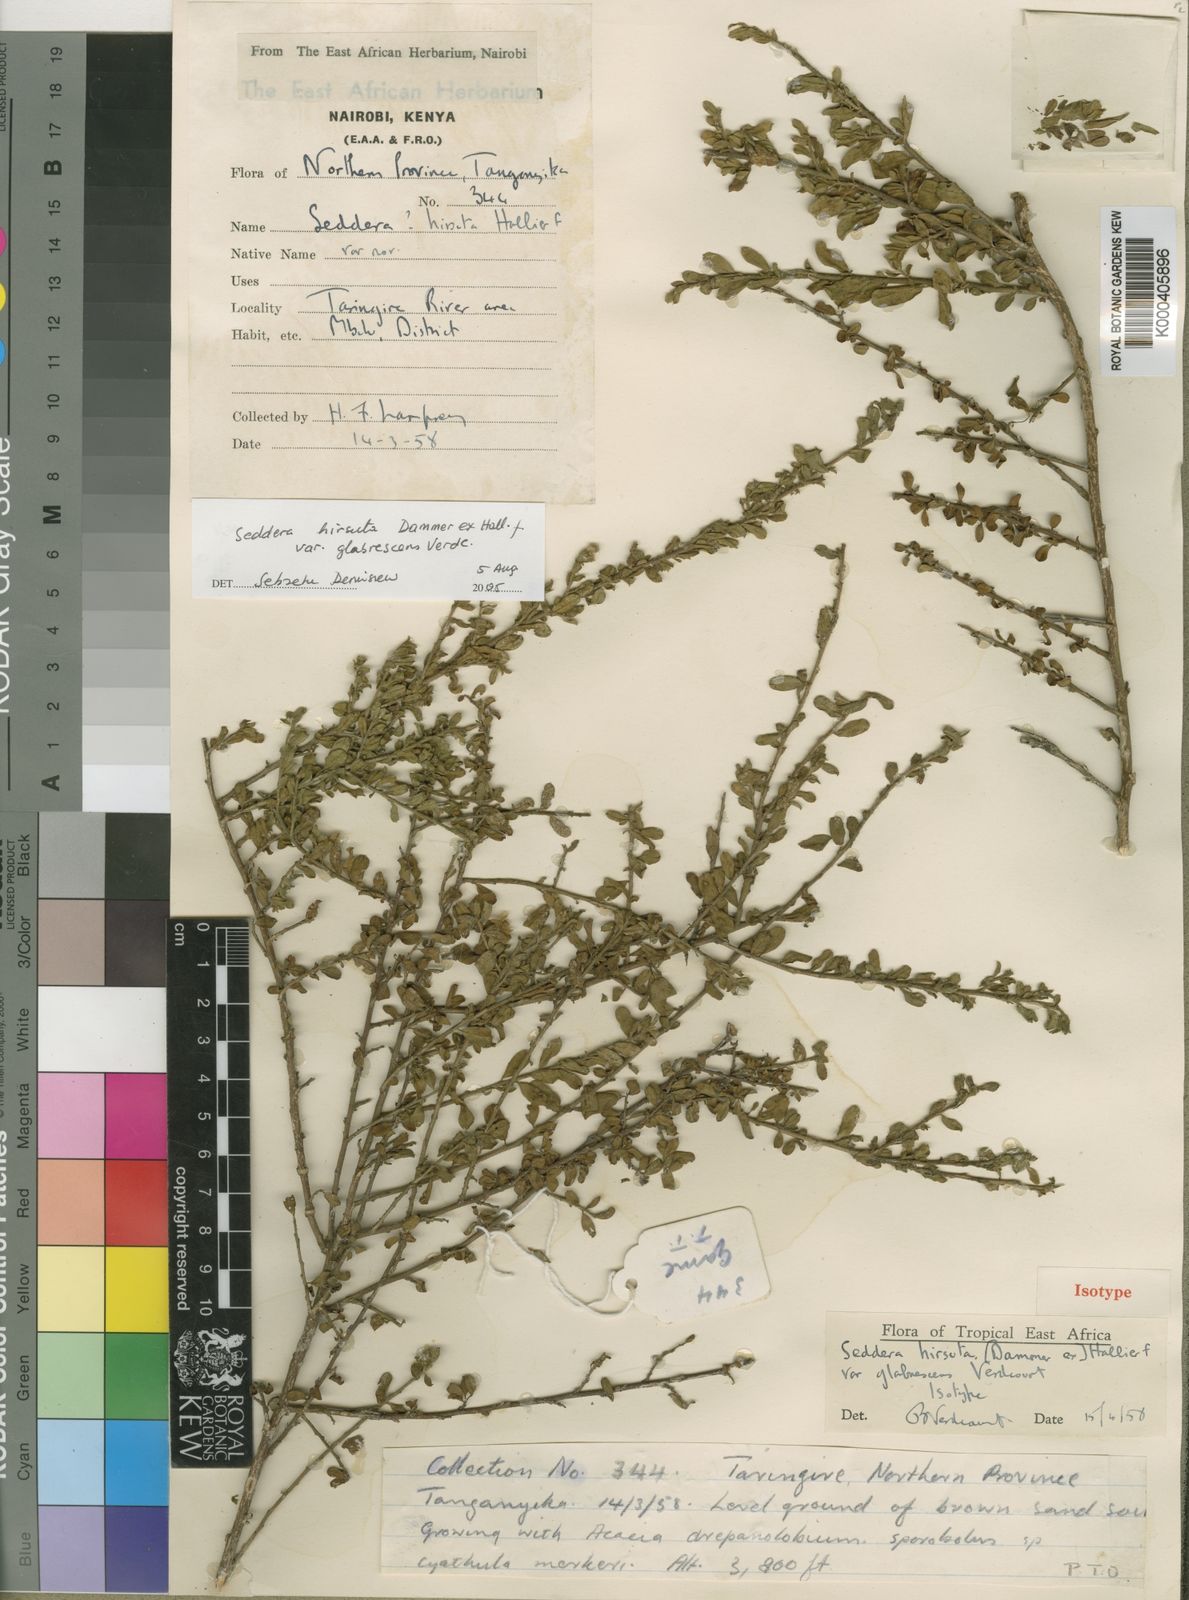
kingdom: Plantae
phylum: Tracheophyta
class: Magnoliopsida
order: Solanales
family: Convolvulaceae
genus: Seddera
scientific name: Seddera hirsuta
